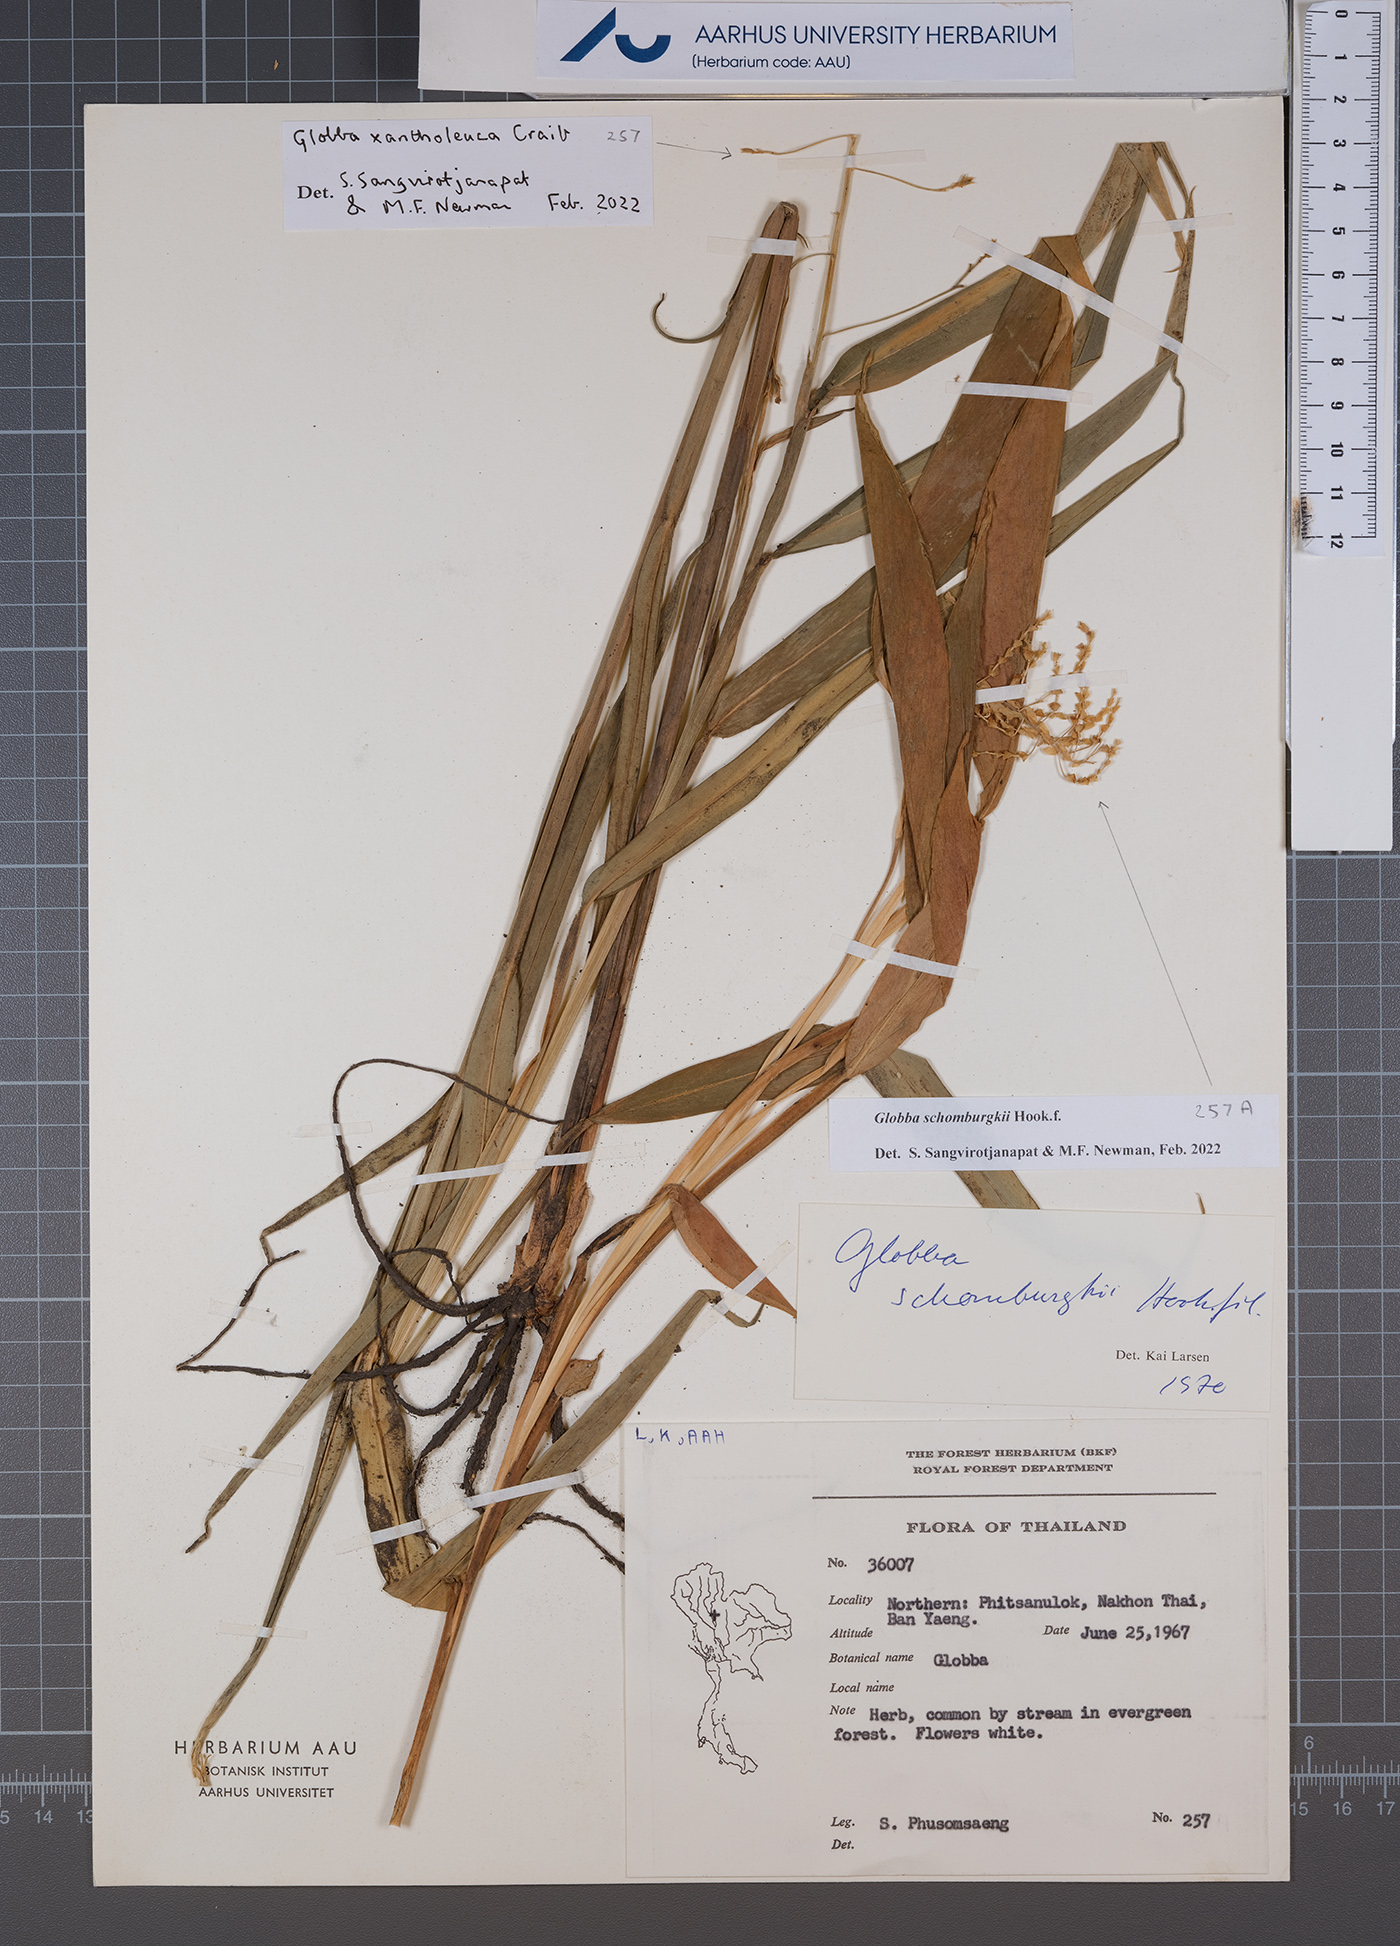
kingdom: Plantae
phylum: Tracheophyta
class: Liliopsida
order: Zingiberales
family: Zingiberaceae
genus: Globba
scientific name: Globba schomburgkii
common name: Dancing girl ginger
